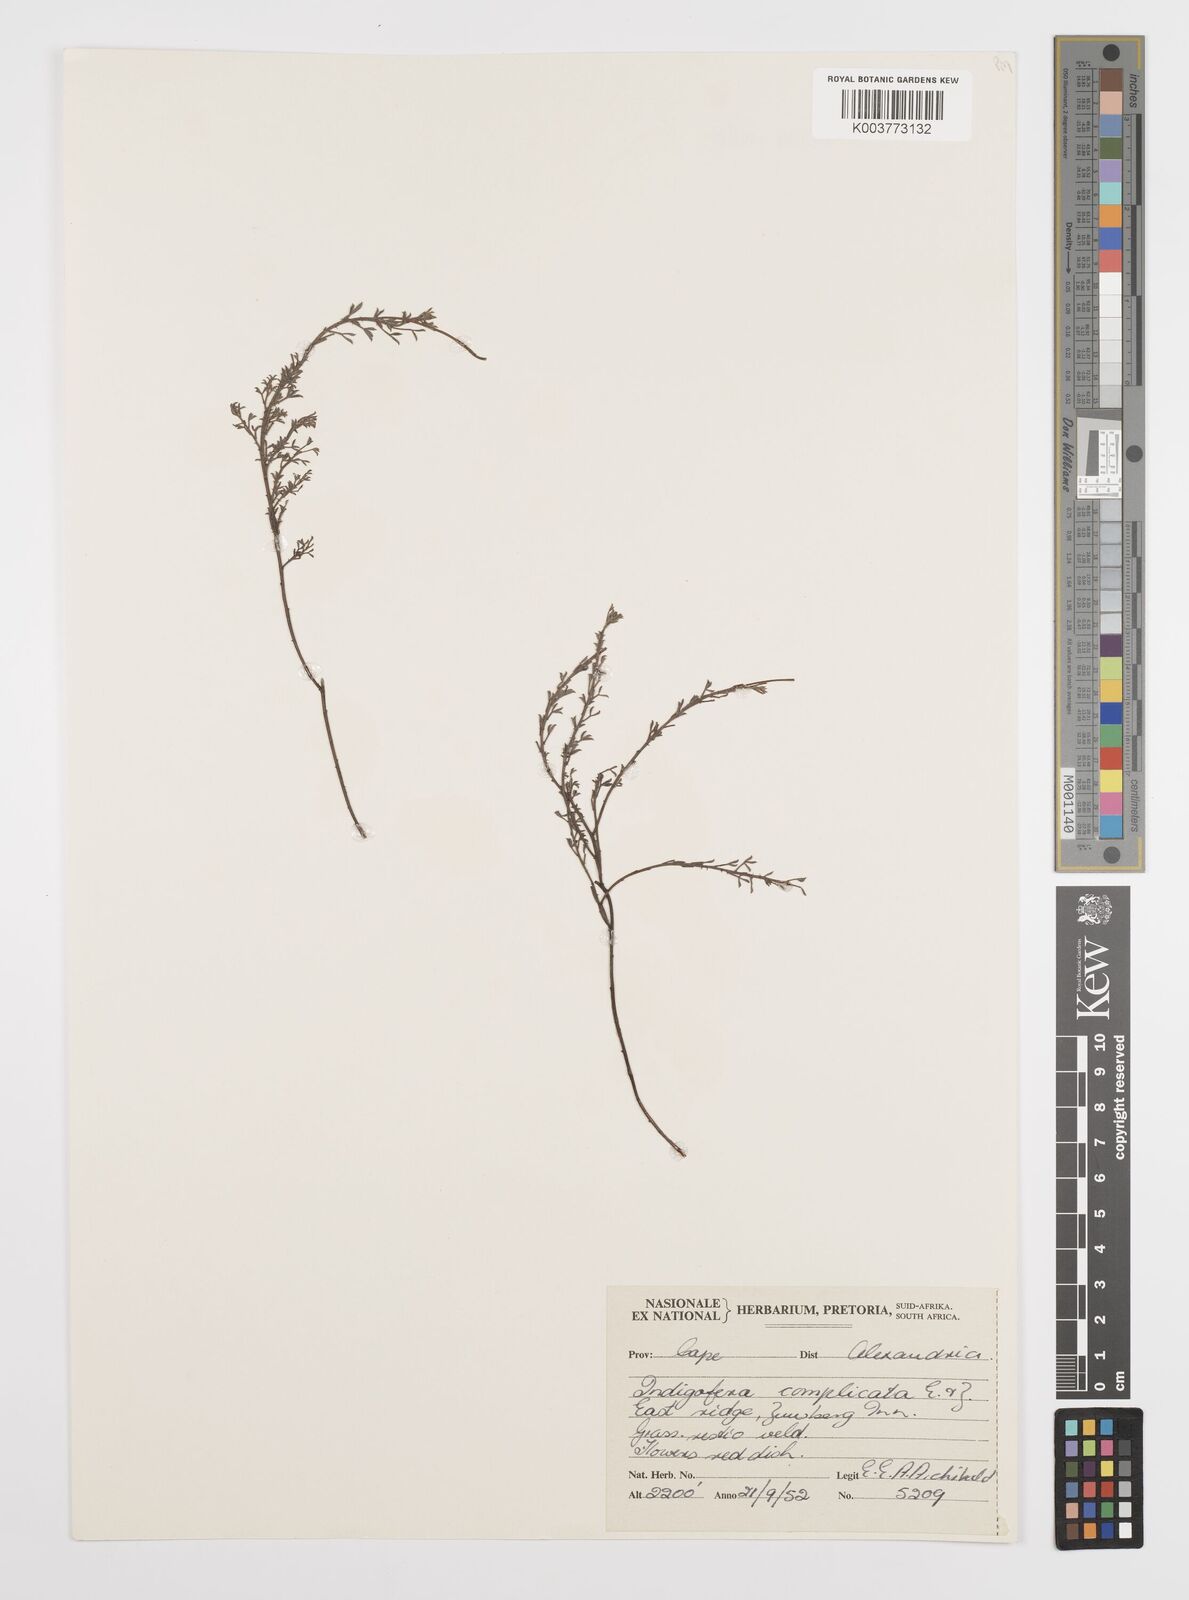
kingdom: Plantae
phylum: Tracheophyta
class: Magnoliopsida
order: Fabales
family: Fabaceae
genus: Indigofera
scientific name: Indigofera hispida
